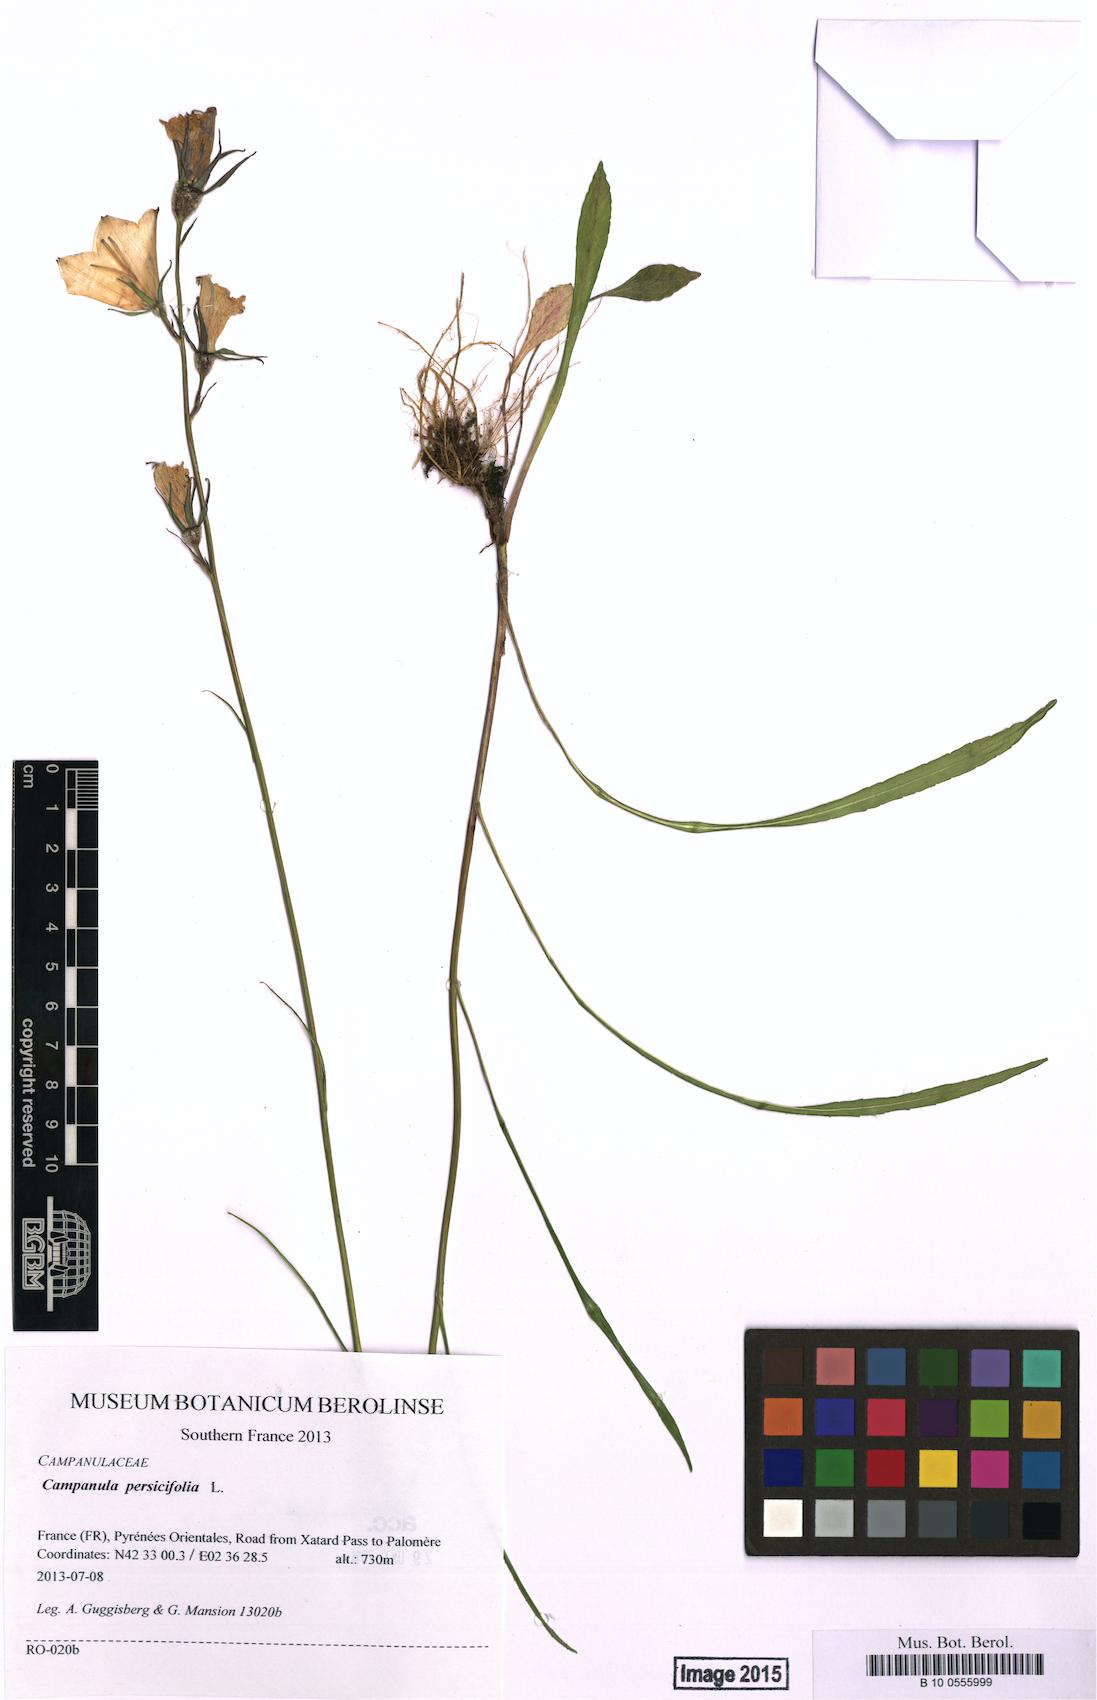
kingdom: Plantae
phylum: Tracheophyta
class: Magnoliopsida
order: Asterales
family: Campanulaceae
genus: Campanula
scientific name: Campanula persicifolia
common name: Peach-leaved bellflower
